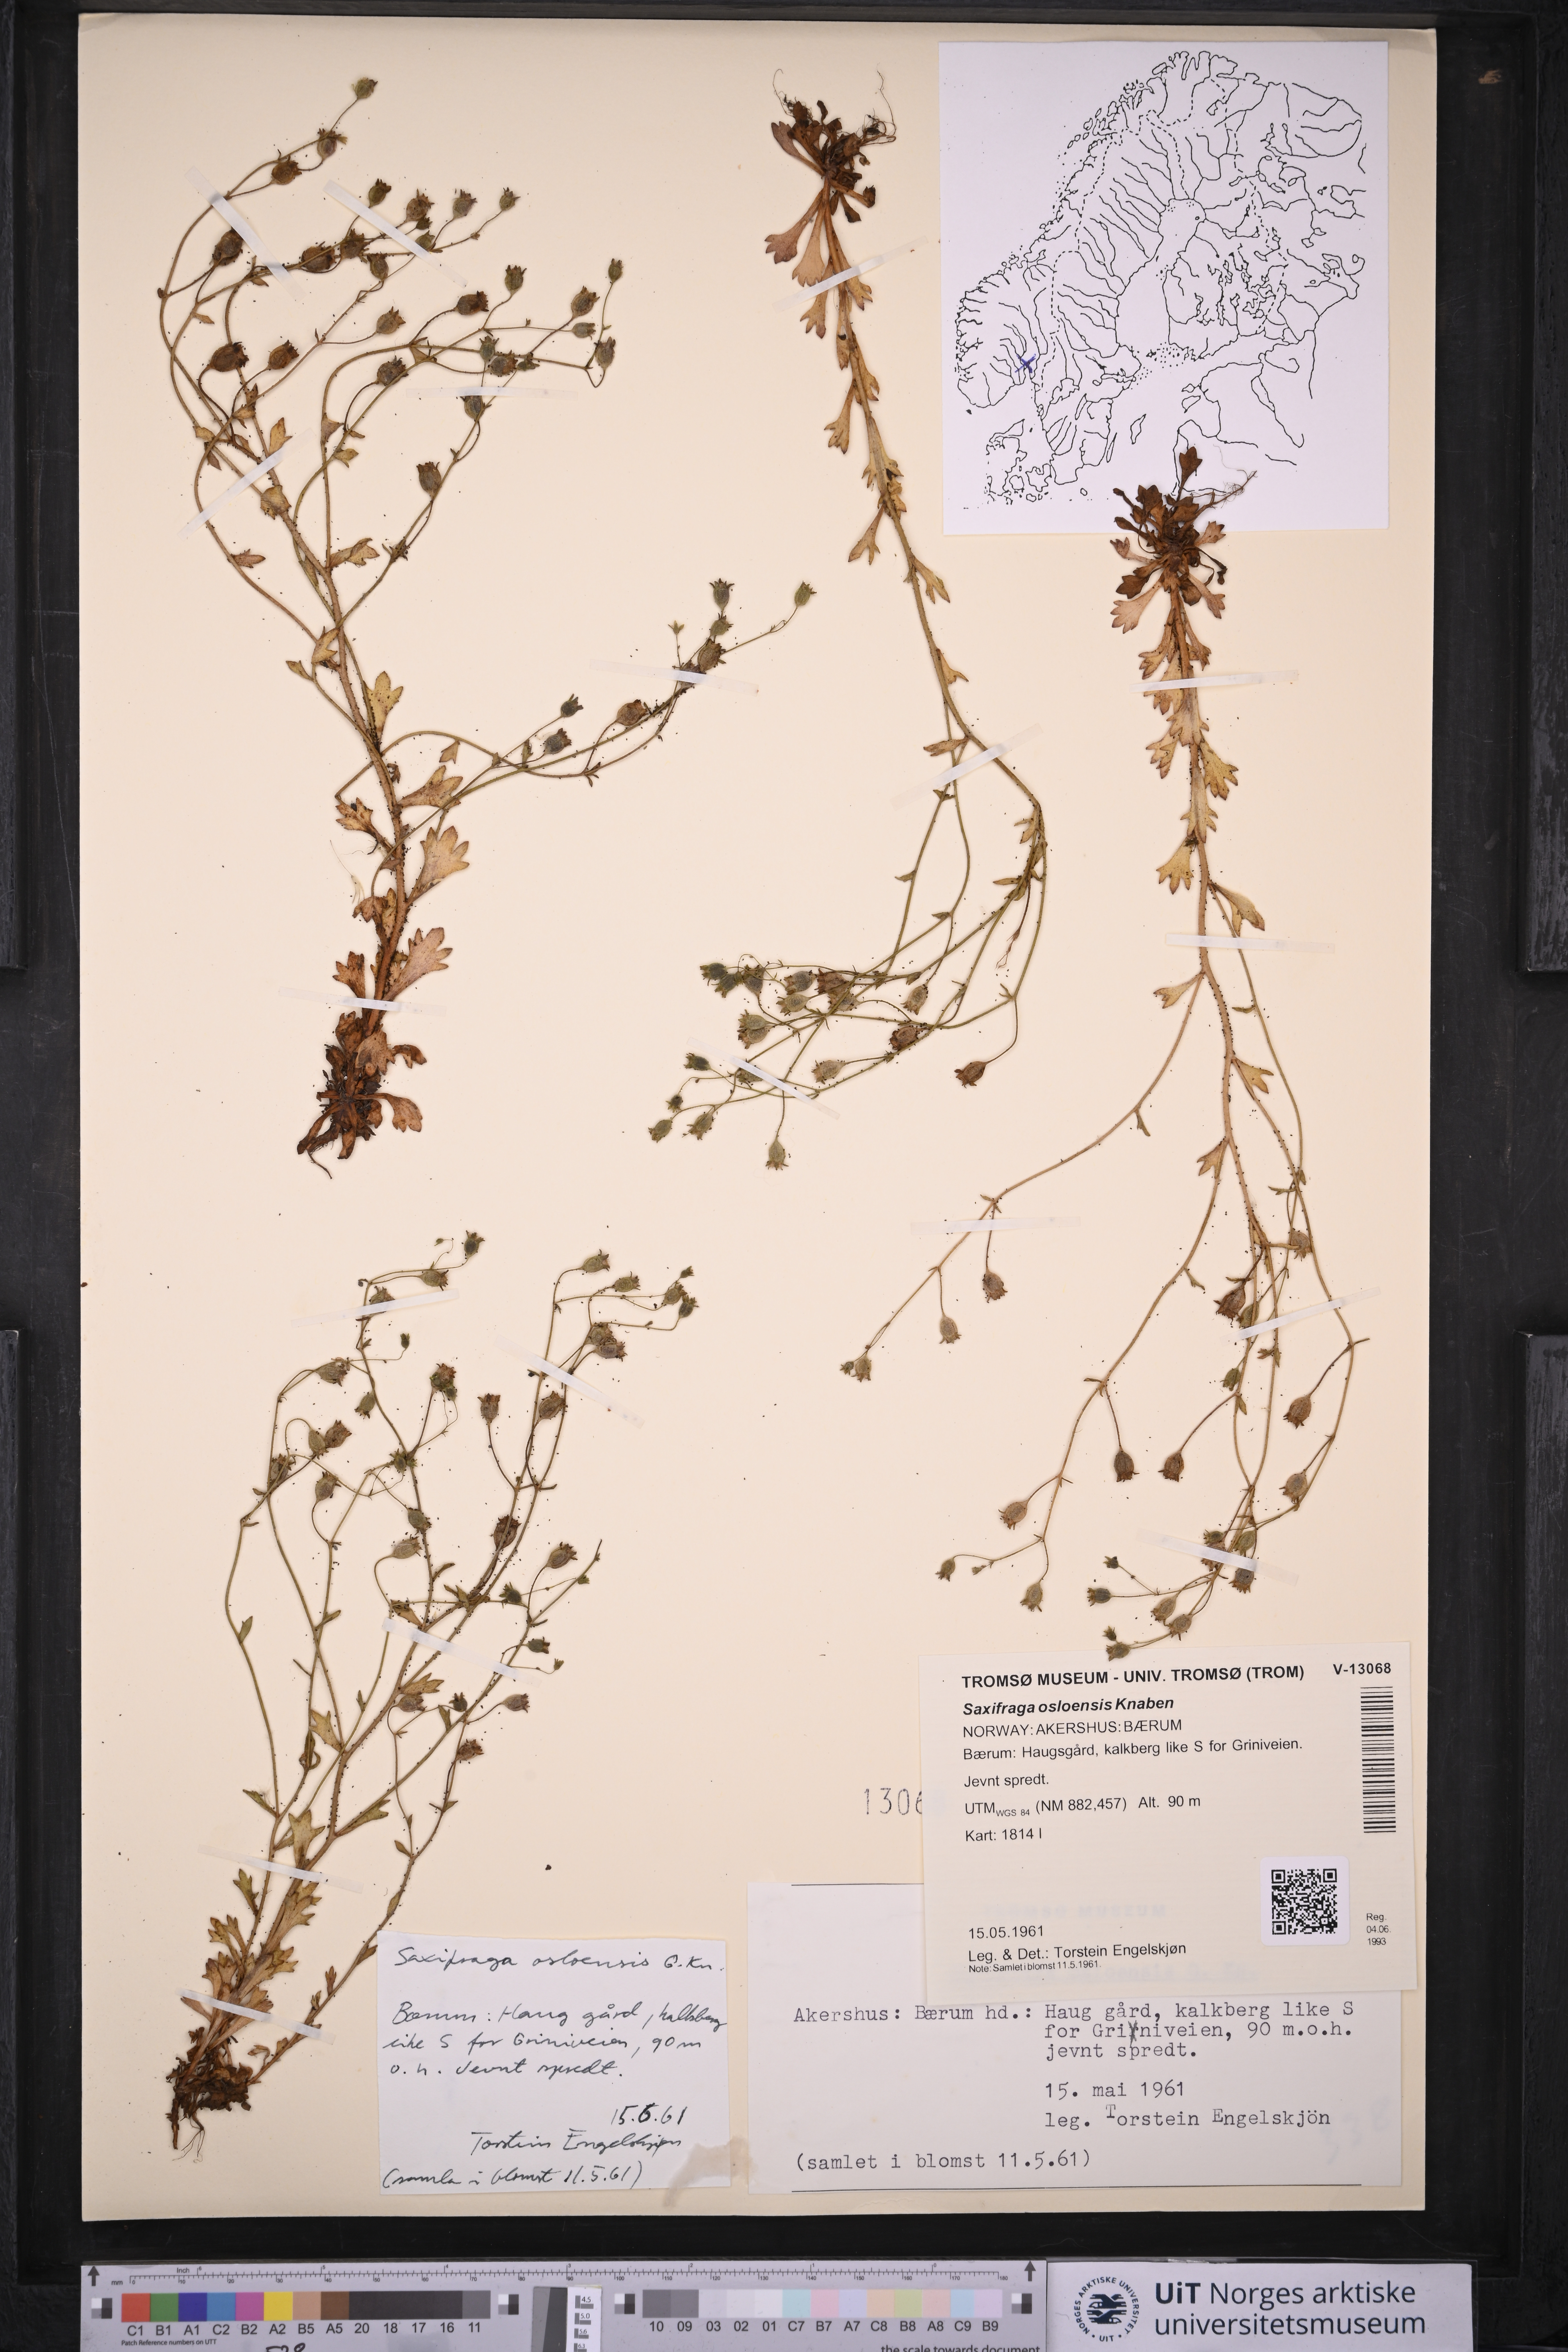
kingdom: Plantae
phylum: Tracheophyta
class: Magnoliopsida
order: Saxifragales
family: Saxifragaceae
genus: Saxifraga
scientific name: Saxifraga osloensis
